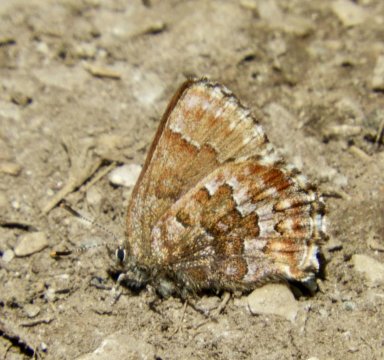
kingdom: Animalia
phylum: Arthropoda
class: Insecta
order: Lepidoptera
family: Lycaenidae
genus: Incisalia
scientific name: Incisalia niphon
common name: Eastern Pine Elfin
